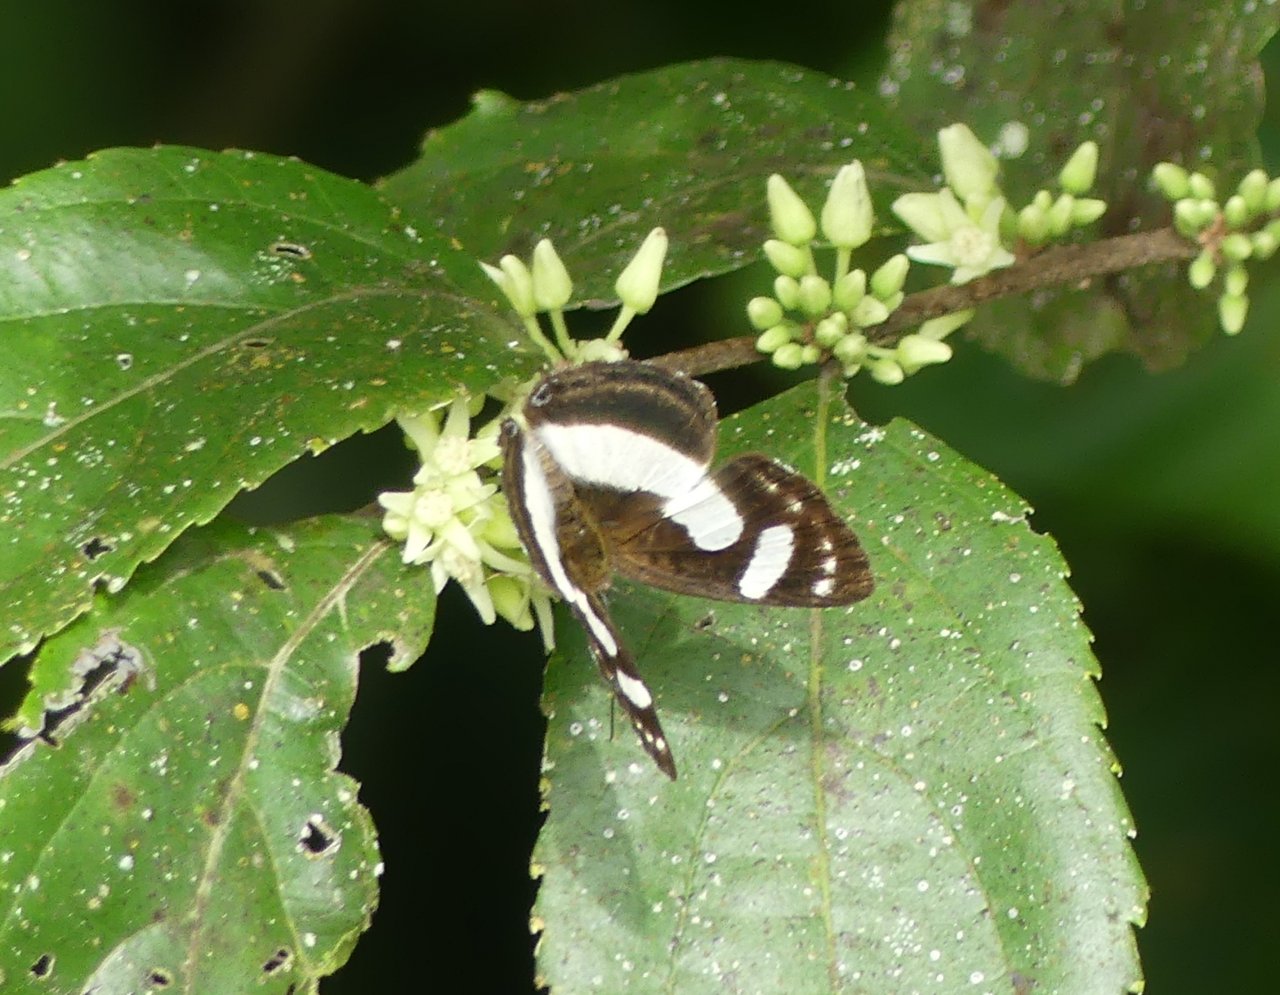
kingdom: Animalia
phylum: Arthropoda
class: Insecta
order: Lepidoptera
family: Riodinidae
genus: Thisbe
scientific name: Thisbe irenea
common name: Irenia Metalmark
